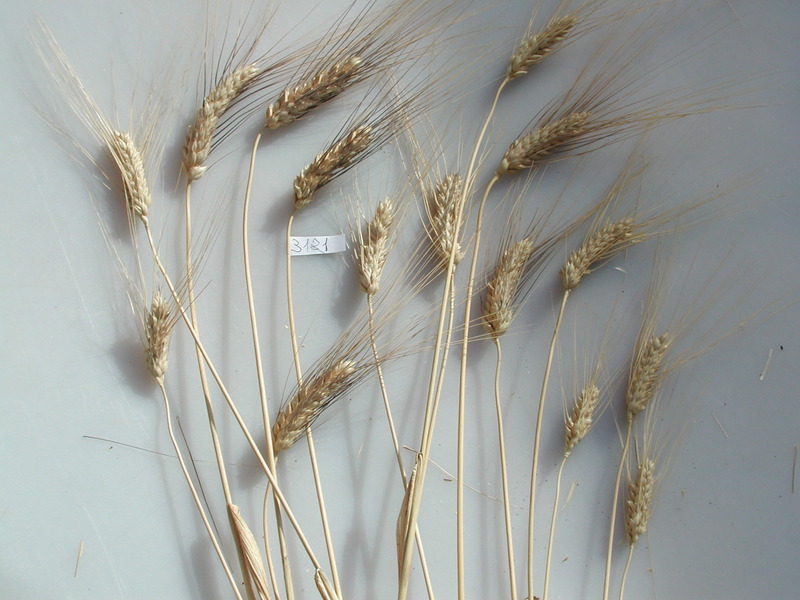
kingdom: Plantae
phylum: Tracheophyta
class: Liliopsida
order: Poales
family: Poaceae
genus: Triticum
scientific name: Triticum turgidum
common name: Wheat
